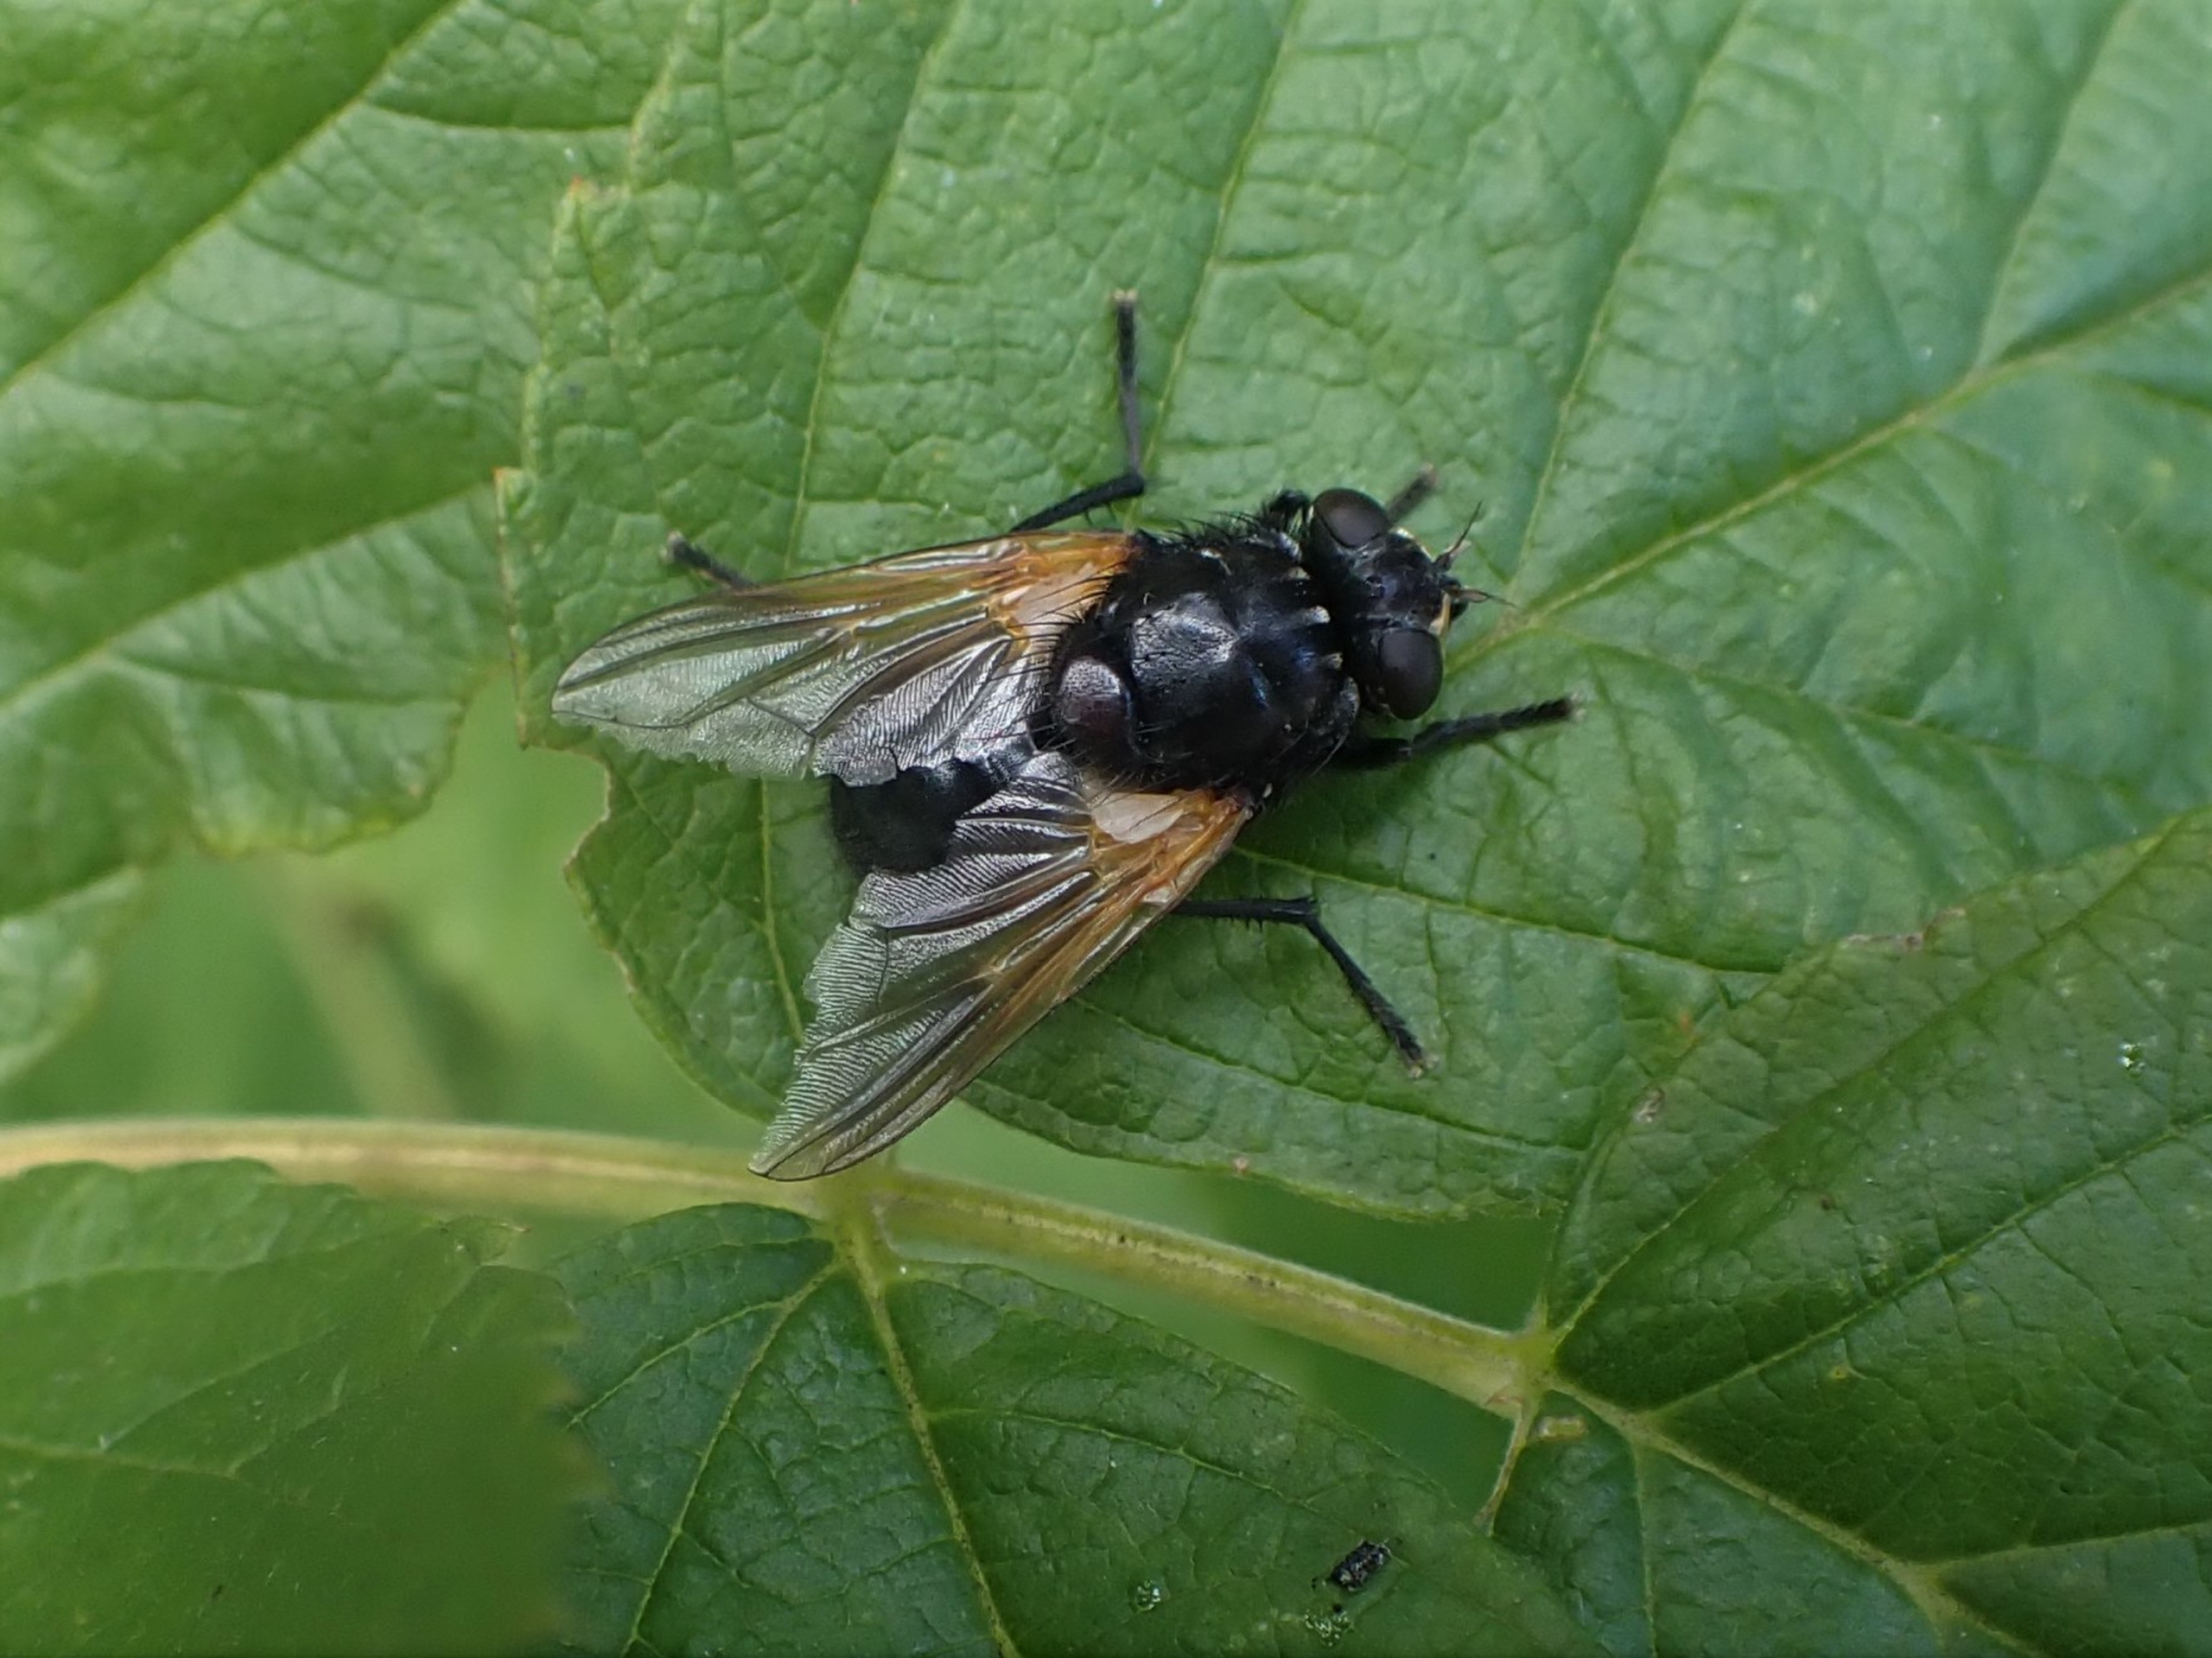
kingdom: Animalia
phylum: Arthropoda
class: Insecta
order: Diptera
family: Muscidae
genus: Mesembrina
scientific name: Mesembrina meridiana
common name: Gulvinget flue
